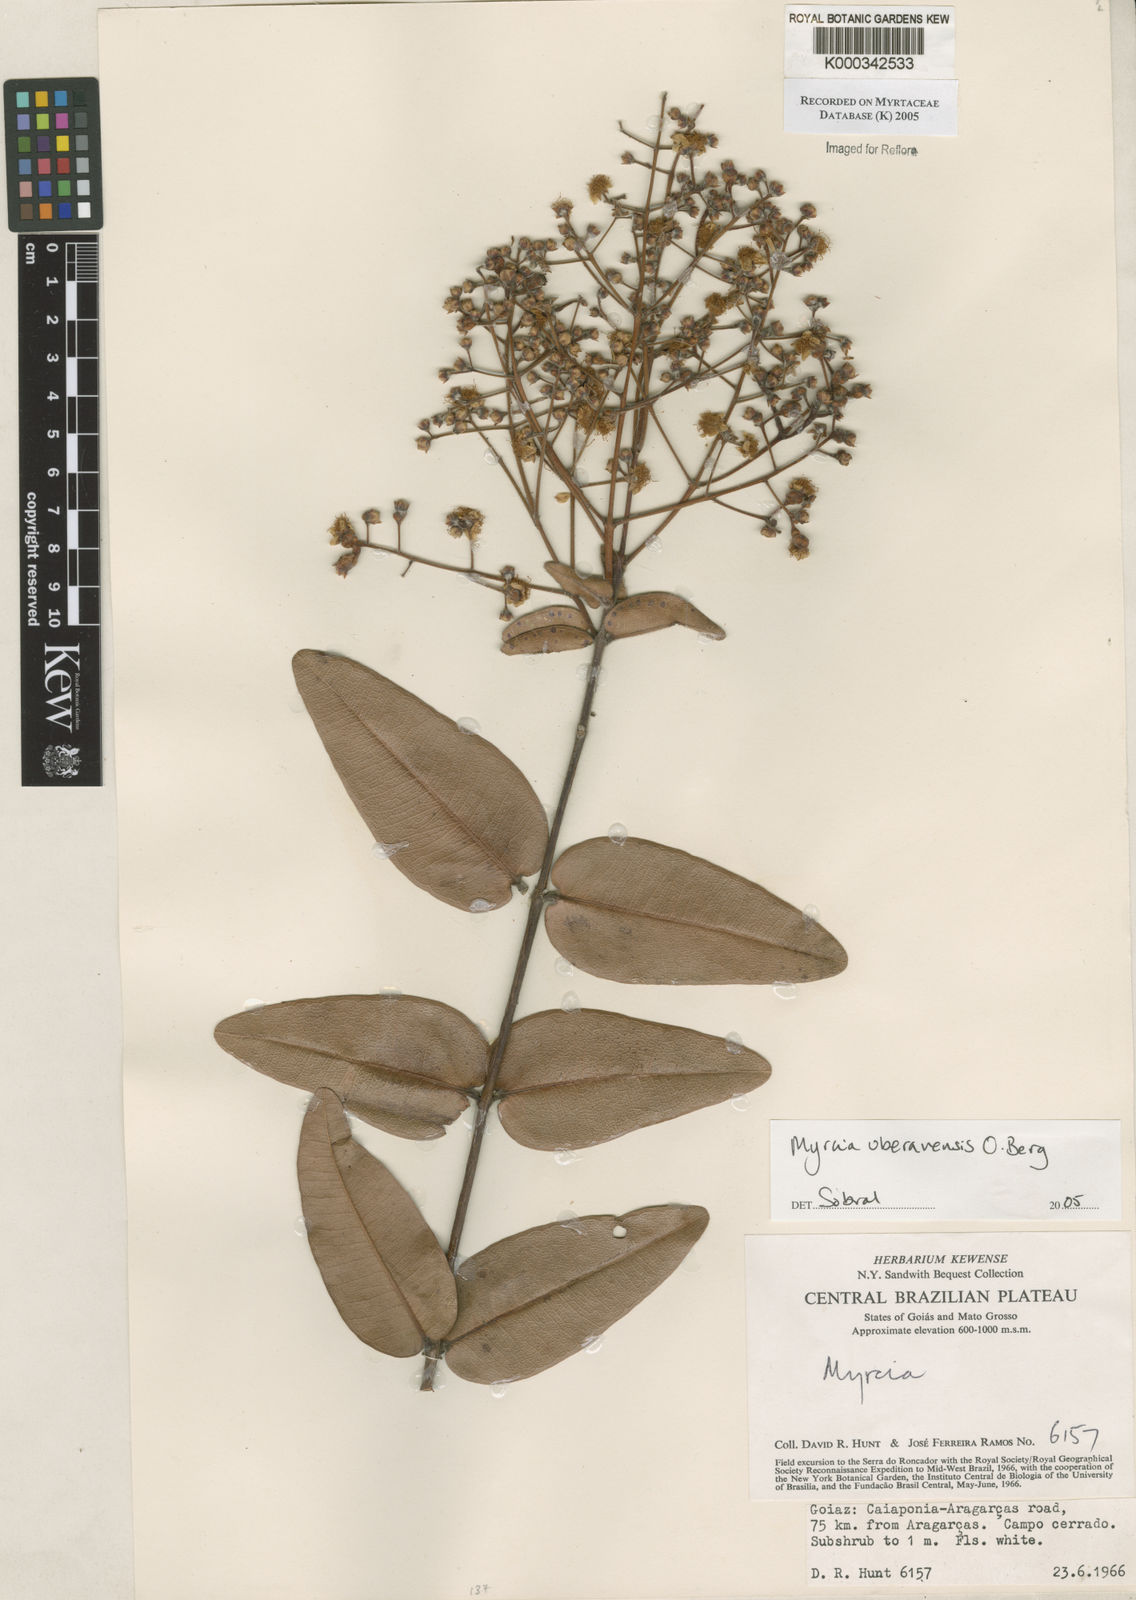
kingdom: Plantae
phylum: Tracheophyta
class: Magnoliopsida
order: Myrtales
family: Myrtaceae
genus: Myrcia
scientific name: Myrcia uberavensis
